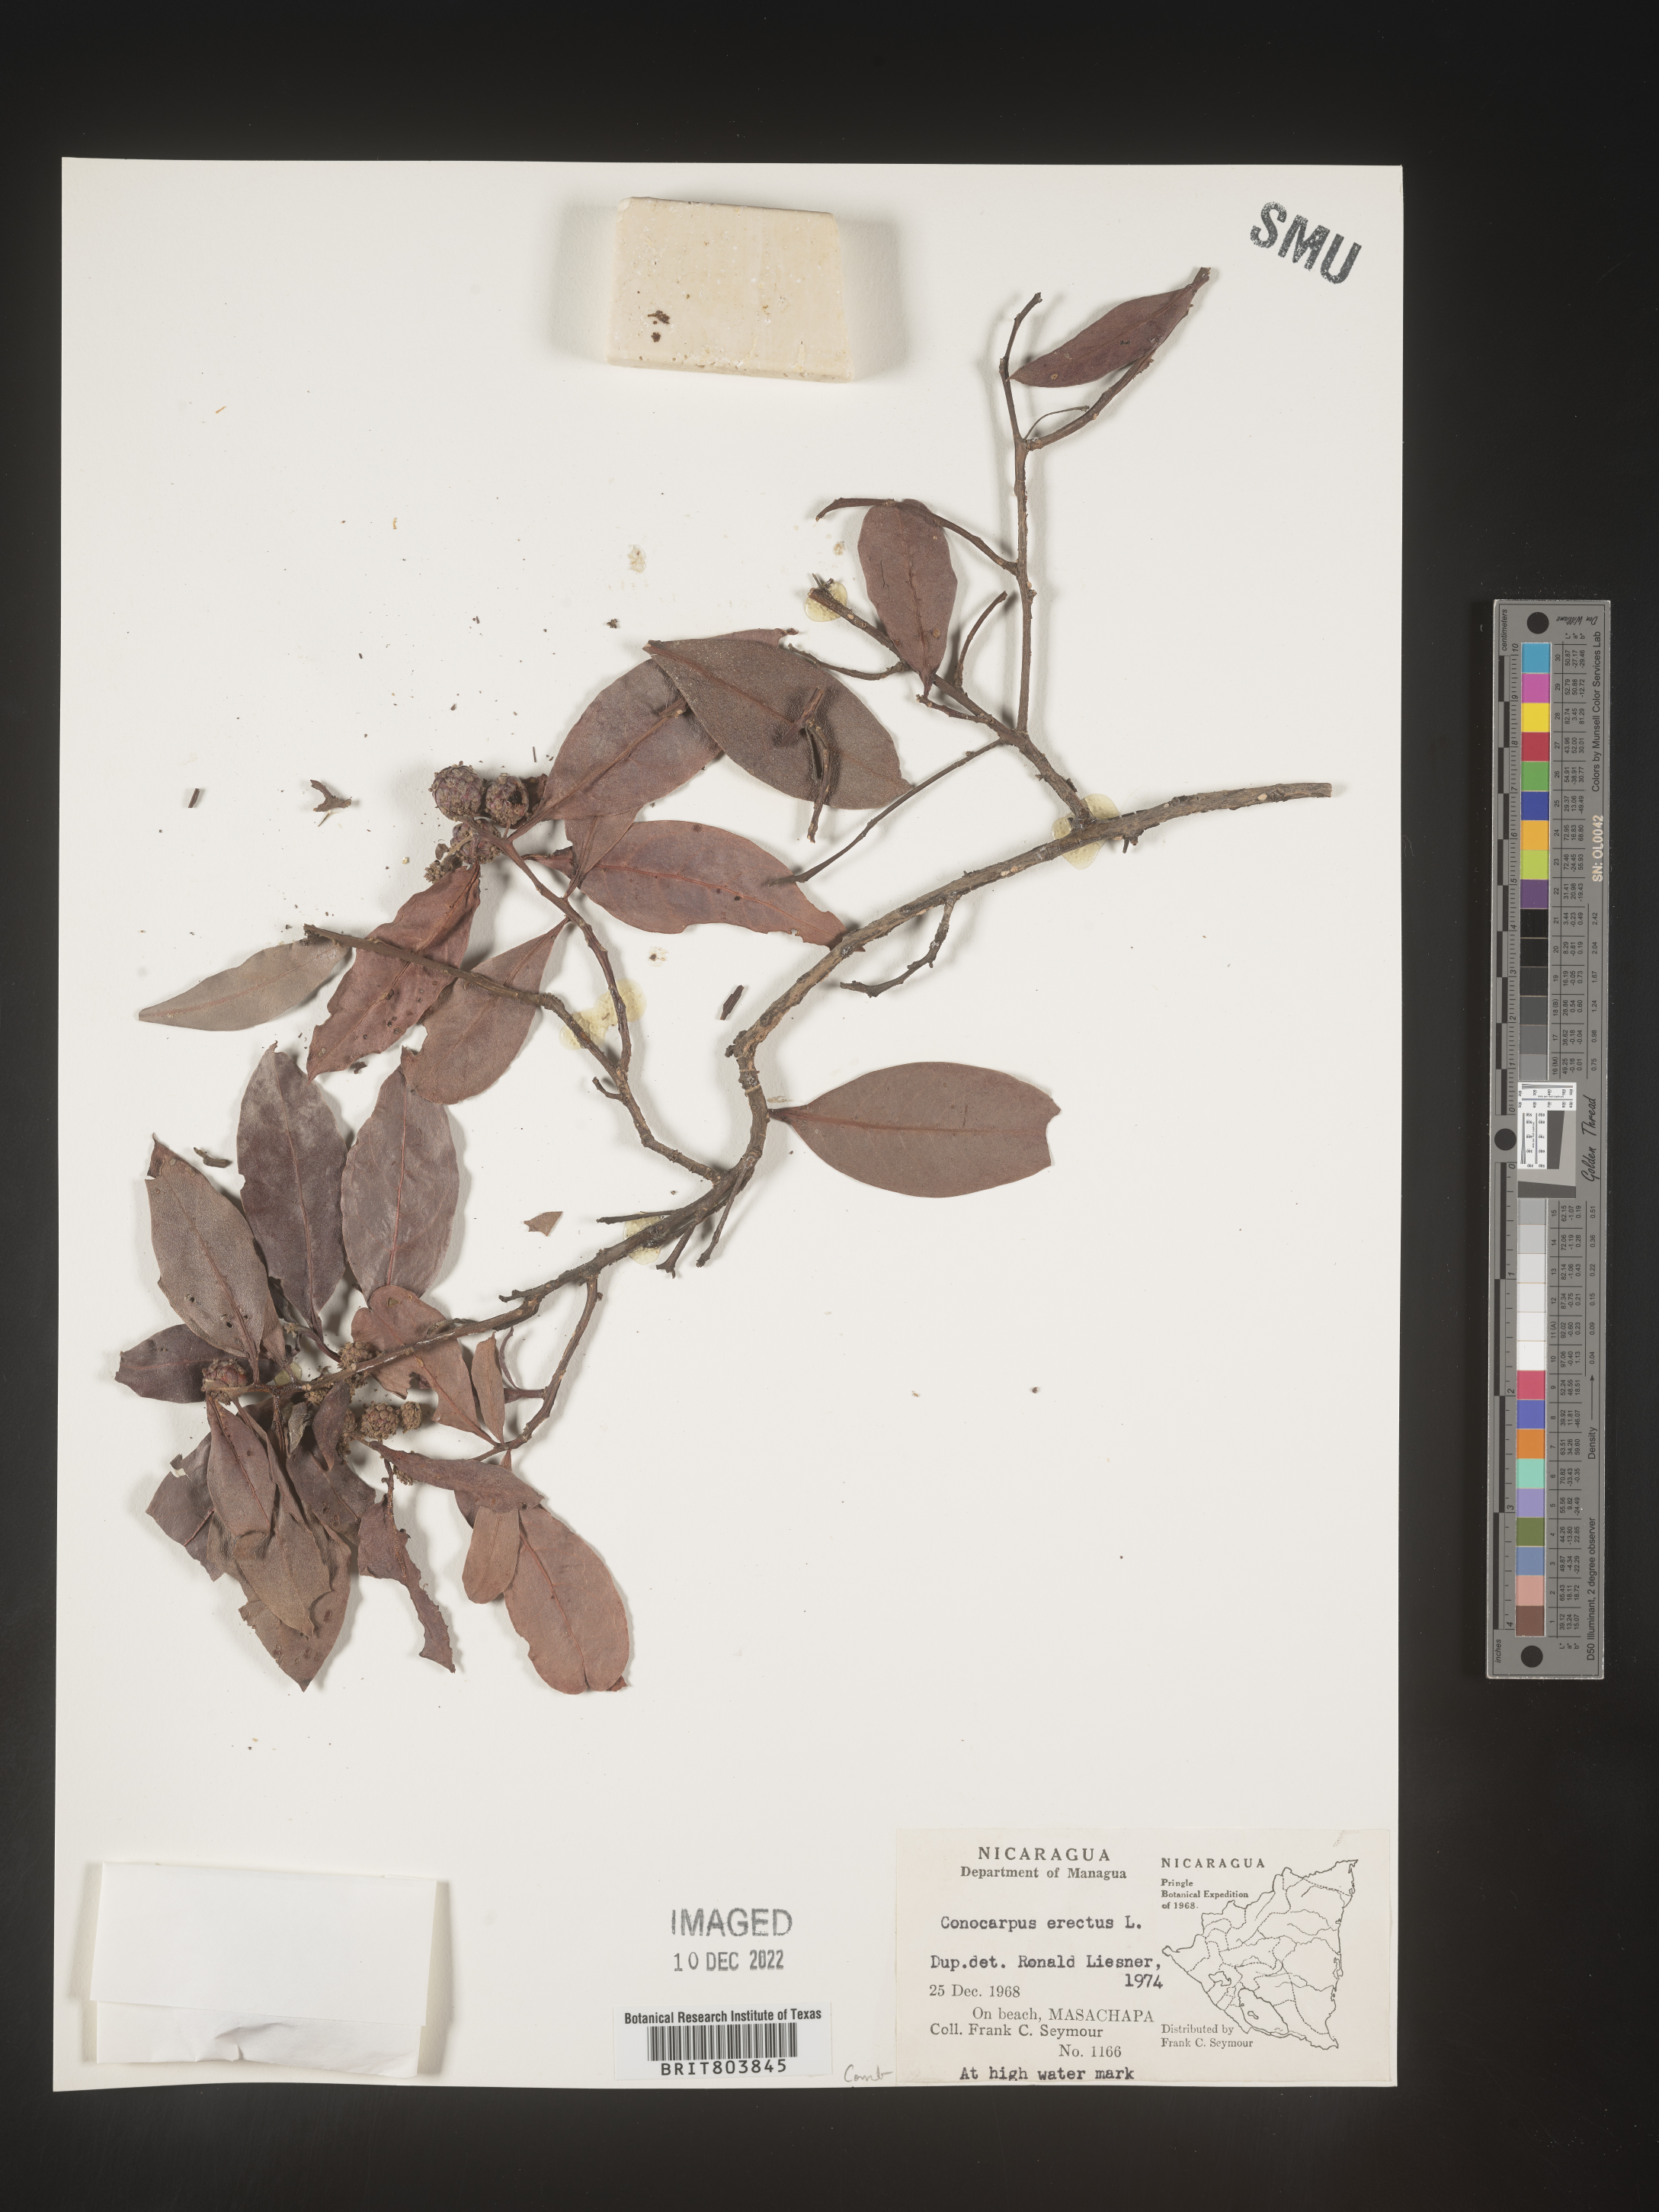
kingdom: Plantae
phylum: Tracheophyta
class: Magnoliopsida
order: Myrtales
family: Combretaceae
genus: Conocarpus
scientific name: Conocarpus
